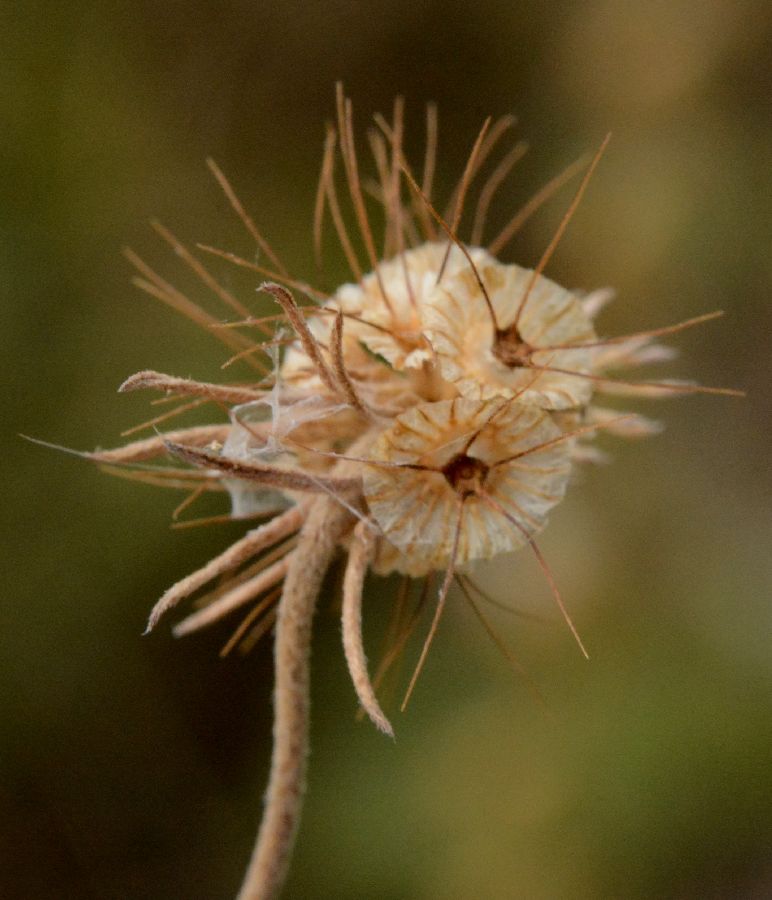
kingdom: Plantae
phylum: Tracheophyta
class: Magnoliopsida
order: Dipsacales
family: Caprifoliaceae
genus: Scabiosa
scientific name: Scabiosa ochroleuca
